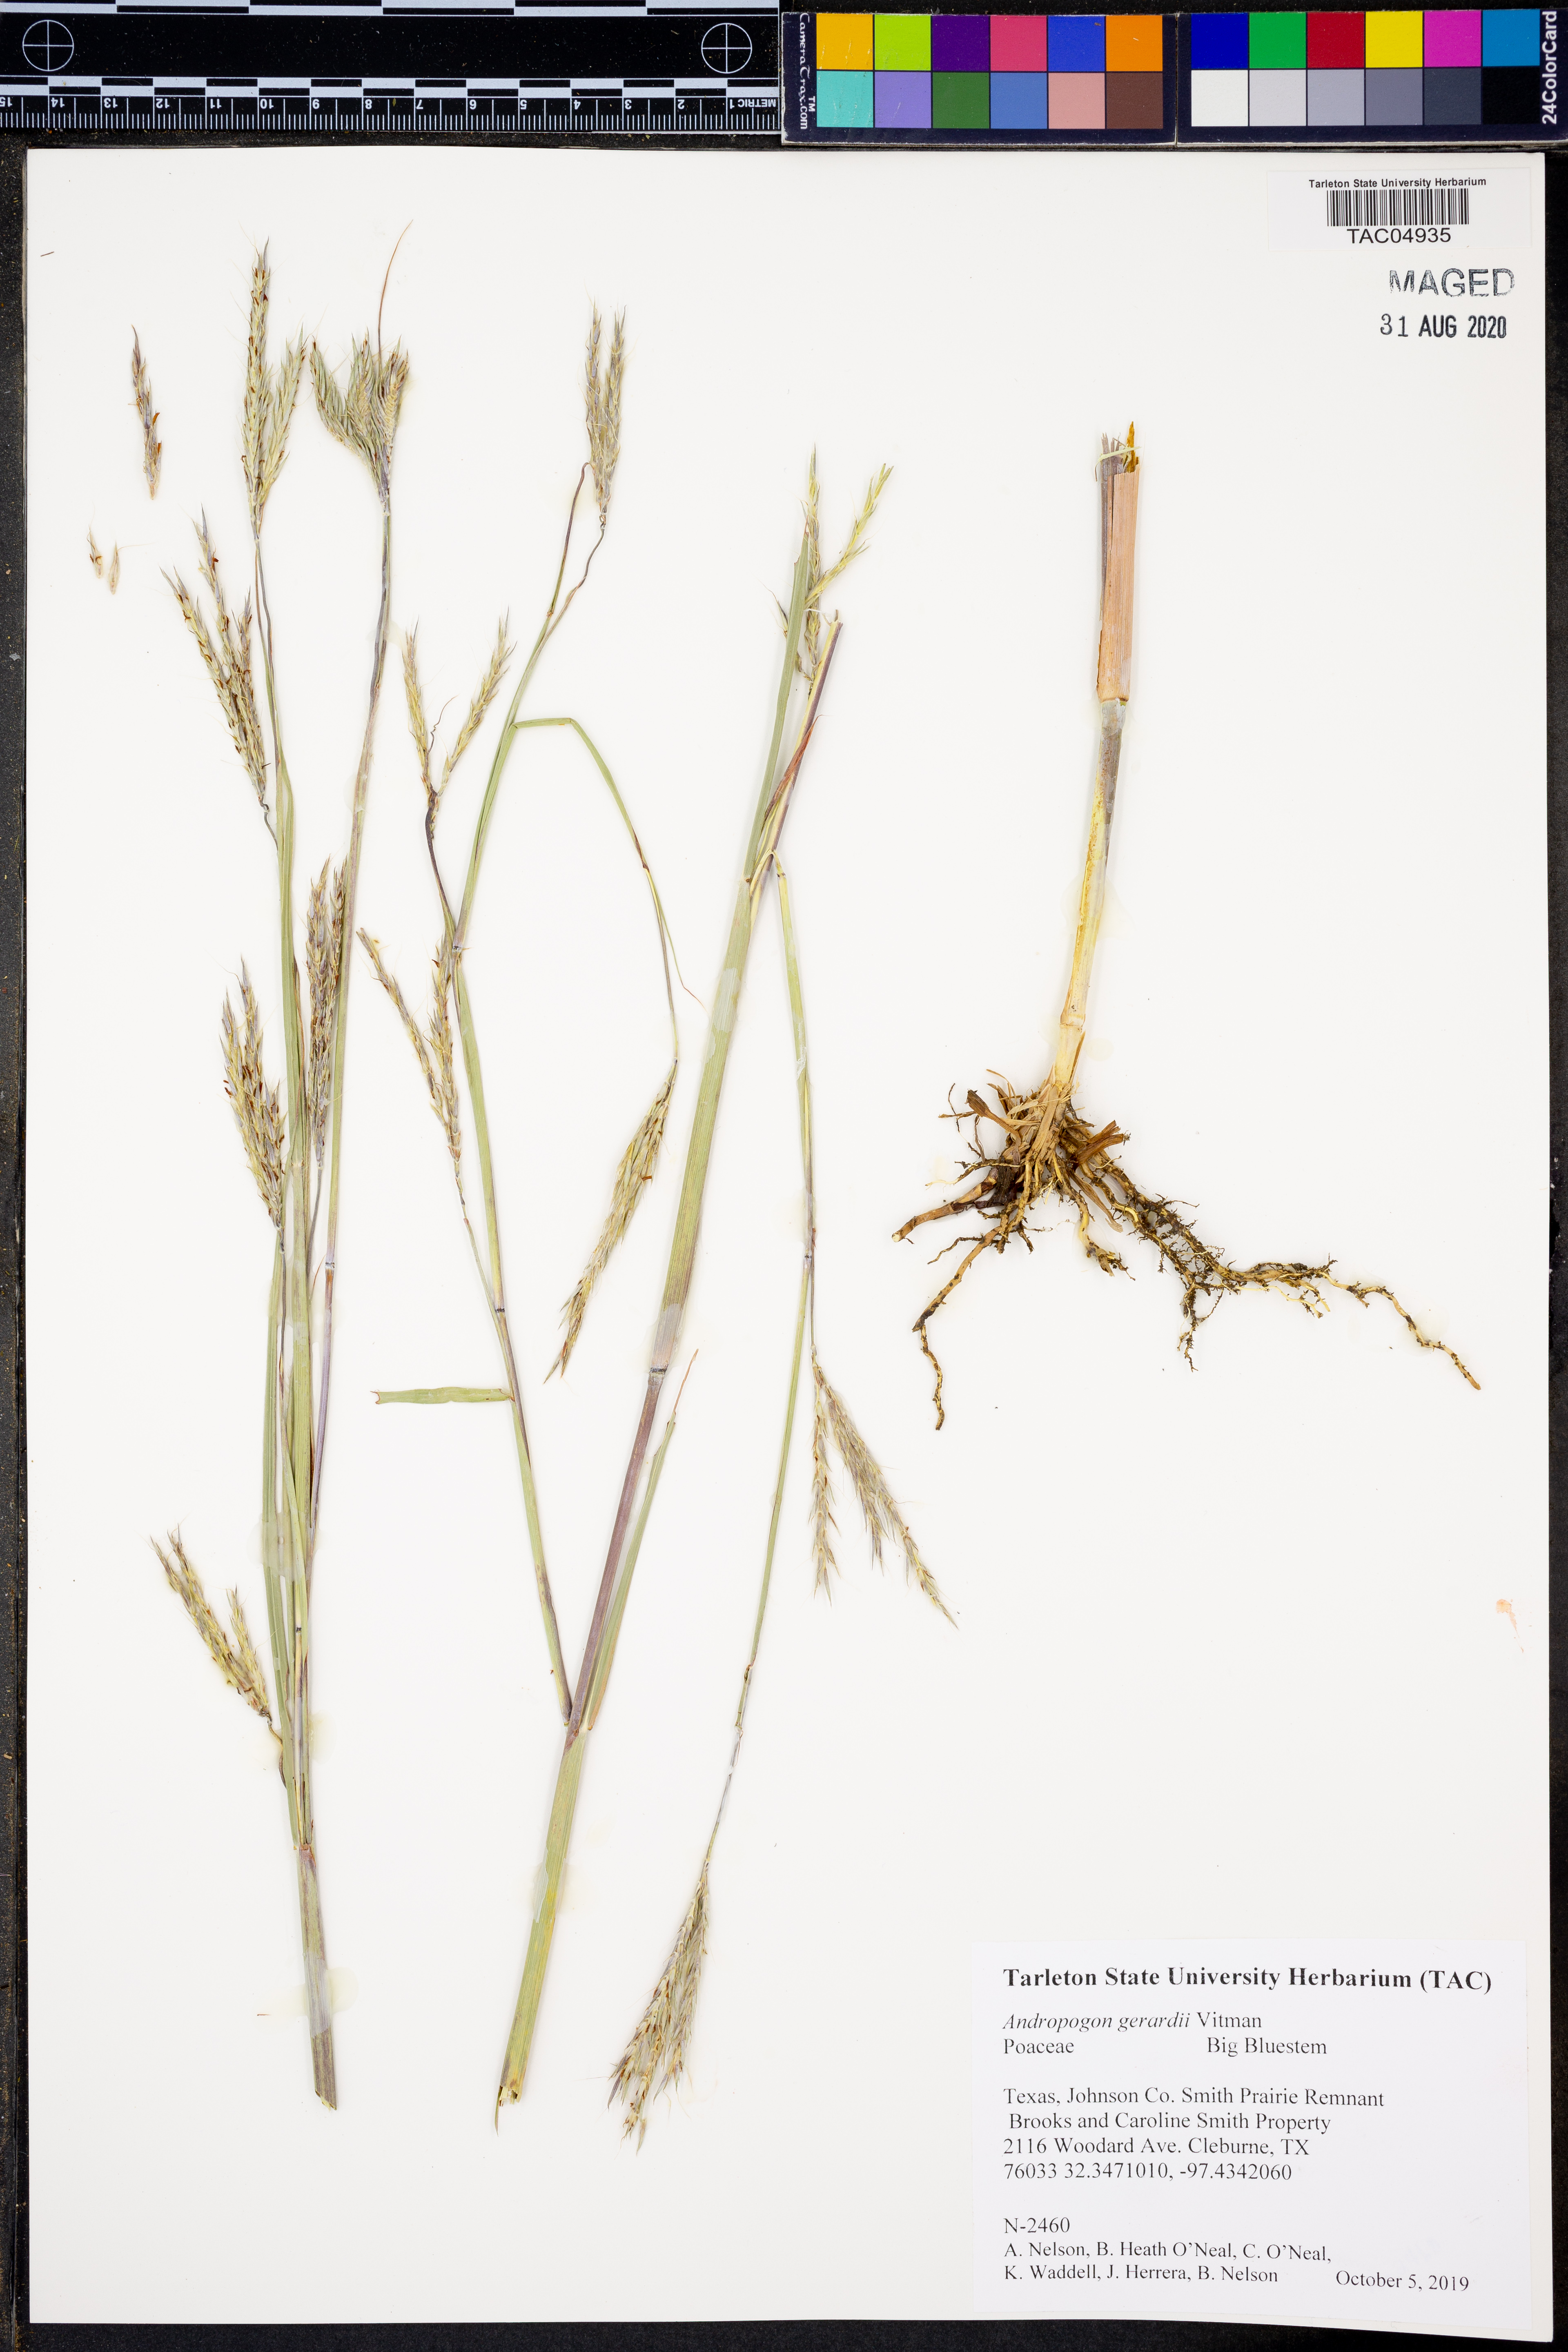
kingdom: Plantae
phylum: Tracheophyta
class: Liliopsida
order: Poales
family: Poaceae
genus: Andropogon
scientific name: Andropogon gerardi
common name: Big bluestem
